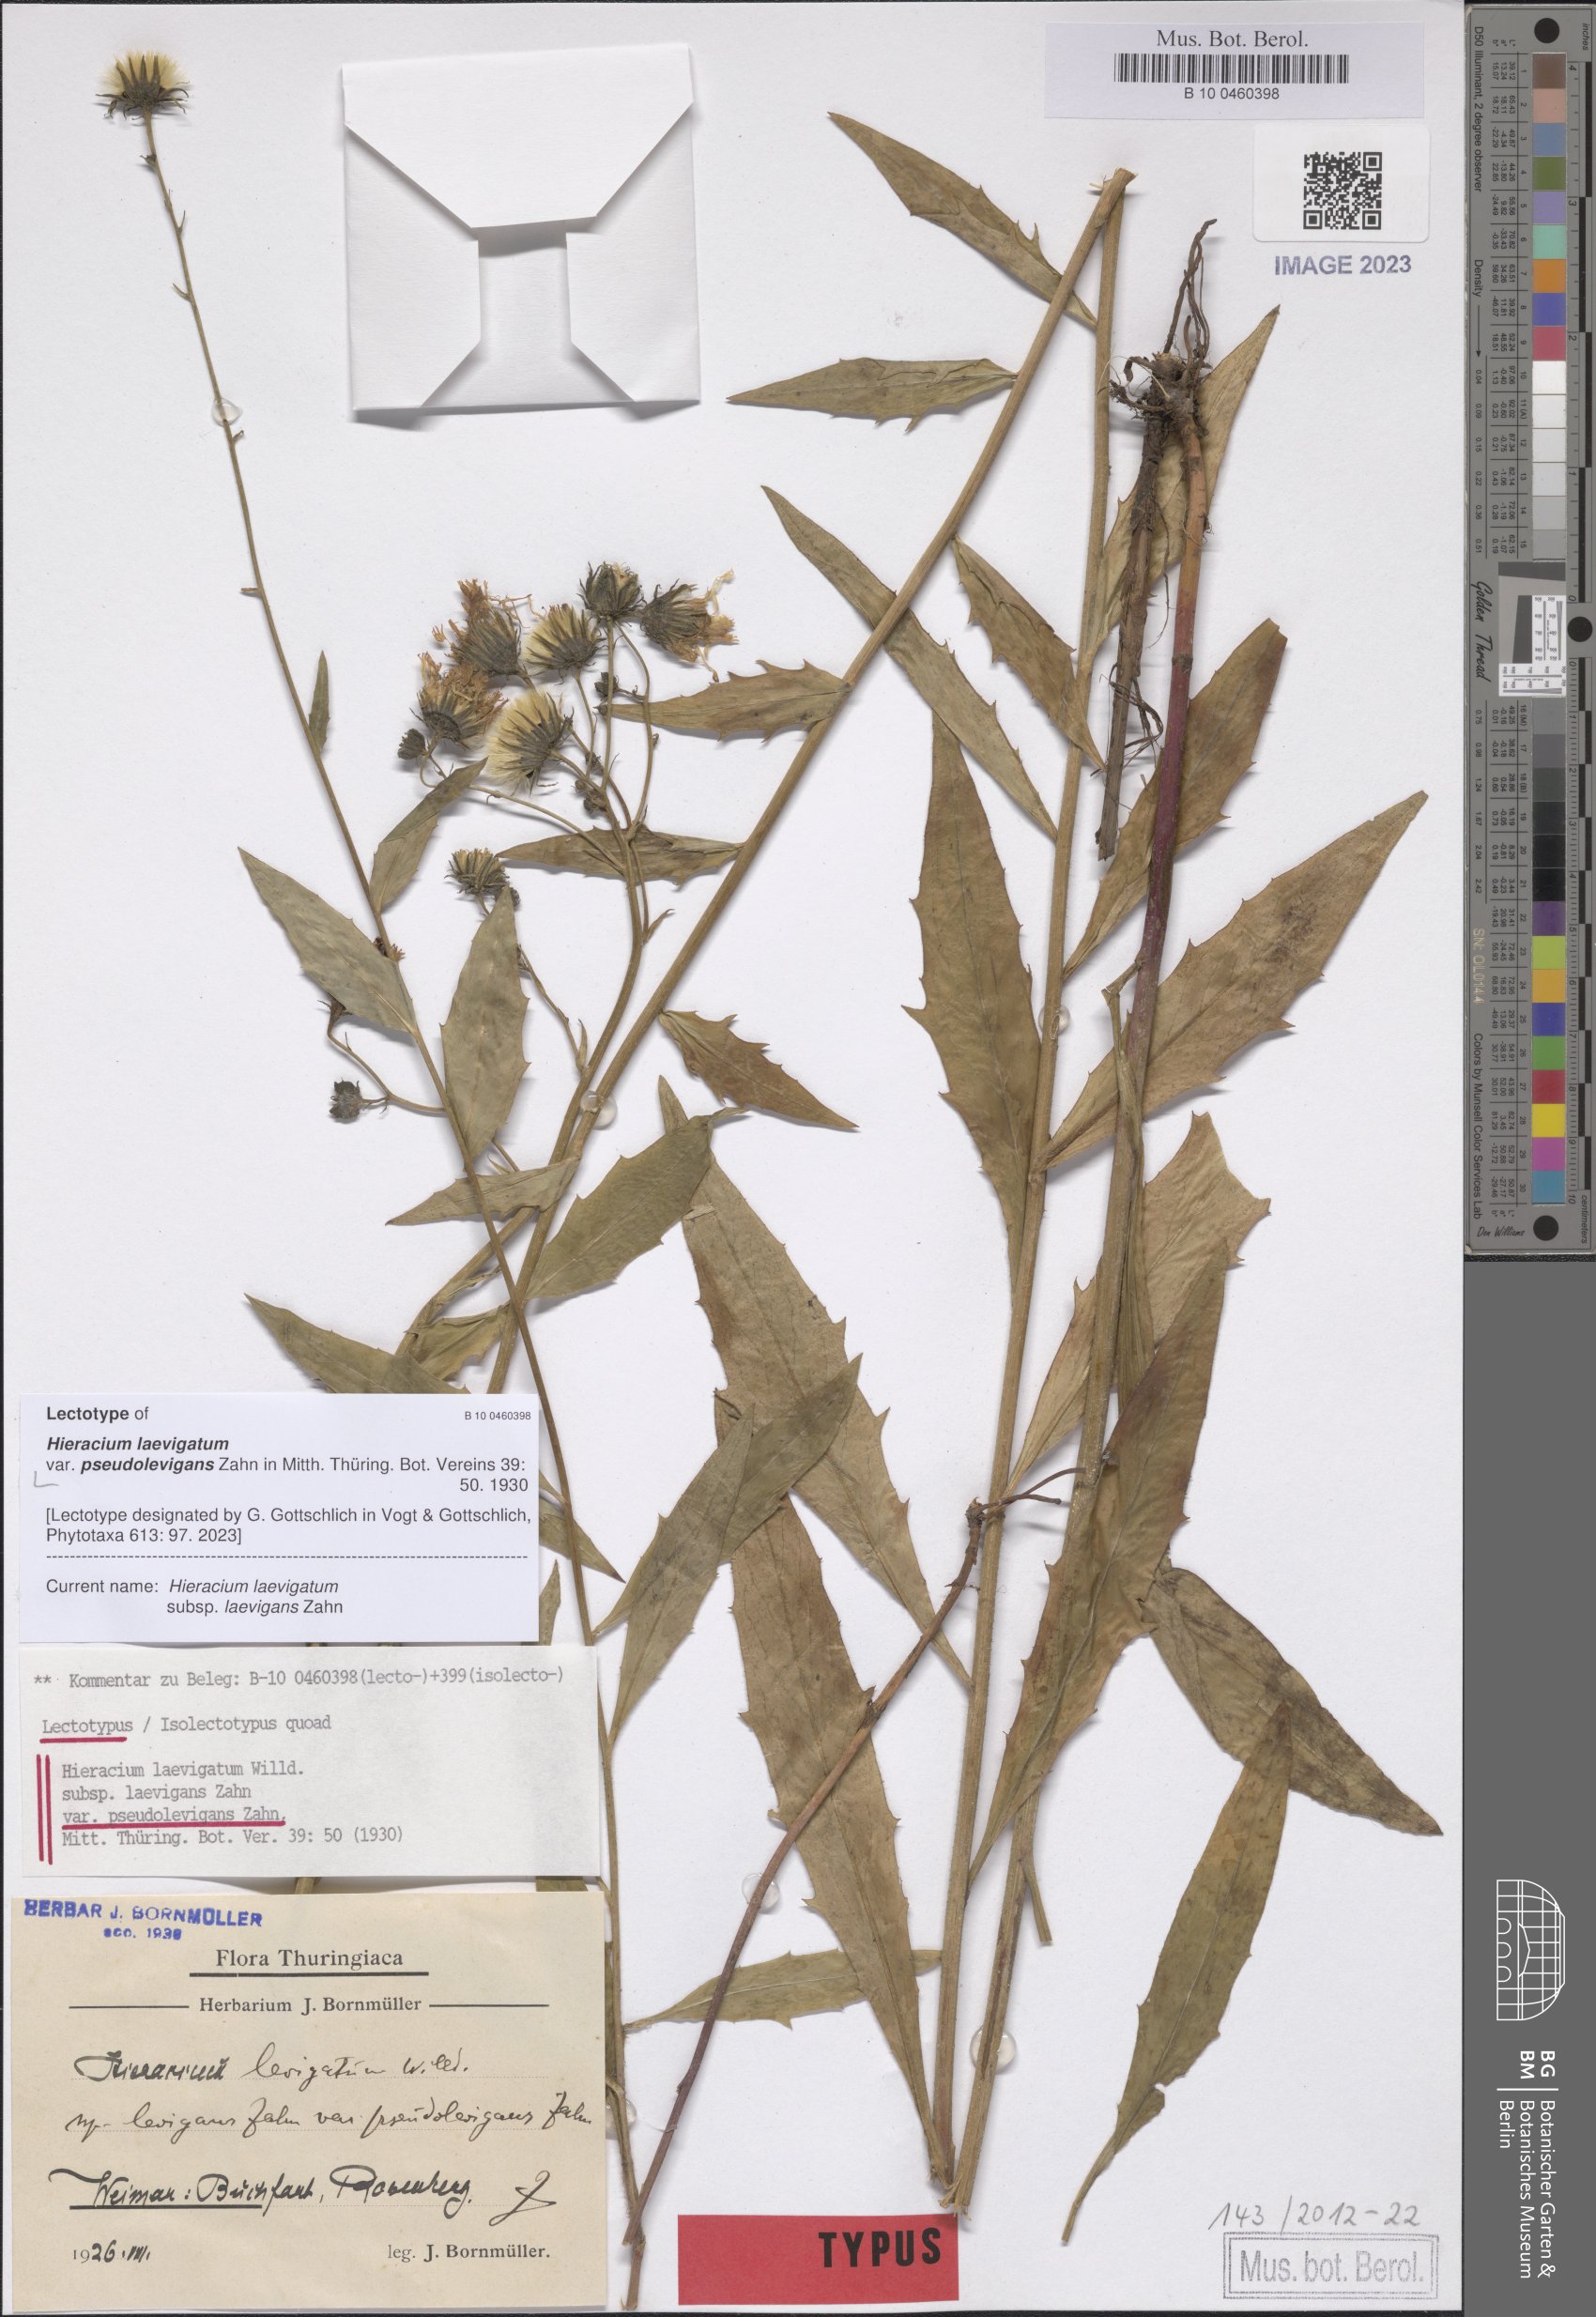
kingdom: Plantae
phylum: Tracheophyta
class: Magnoliopsida
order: Asterales
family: Asteraceae
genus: Hieracium
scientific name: Hieracium laevigatum
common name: Smooth hawkweed
